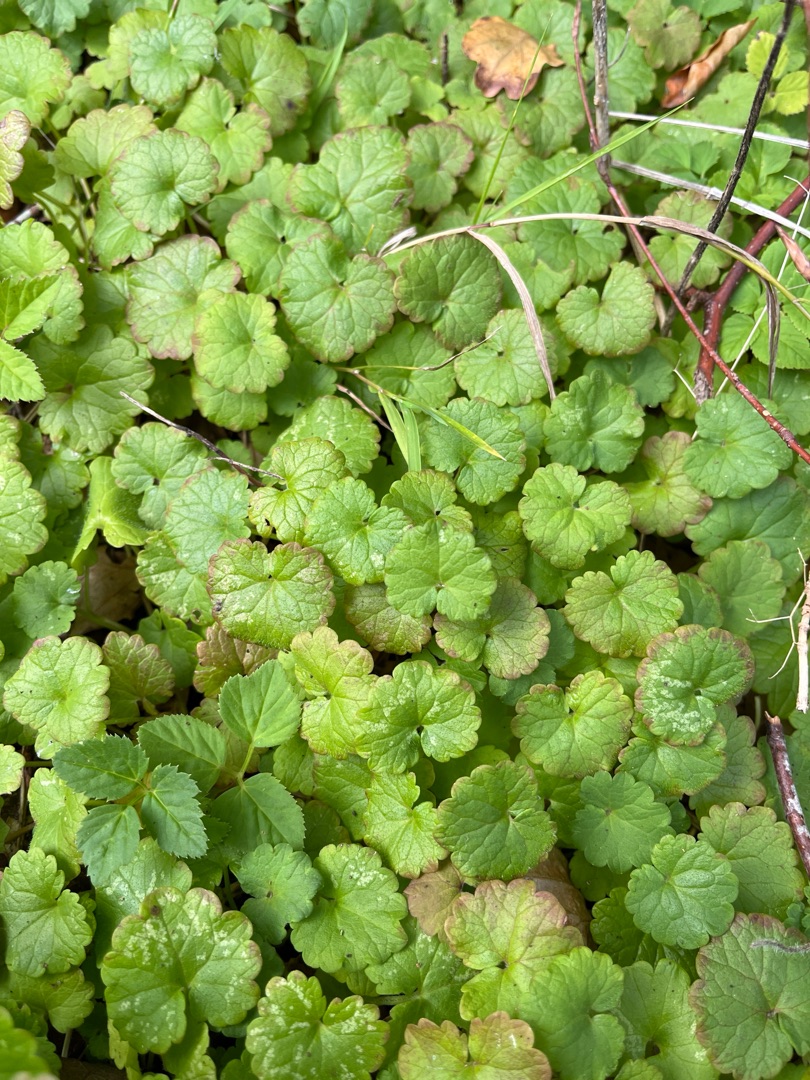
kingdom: Plantae
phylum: Tracheophyta
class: Magnoliopsida
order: Lamiales
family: Lamiaceae
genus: Glechoma
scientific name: Glechoma hederacea
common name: Korsknap
